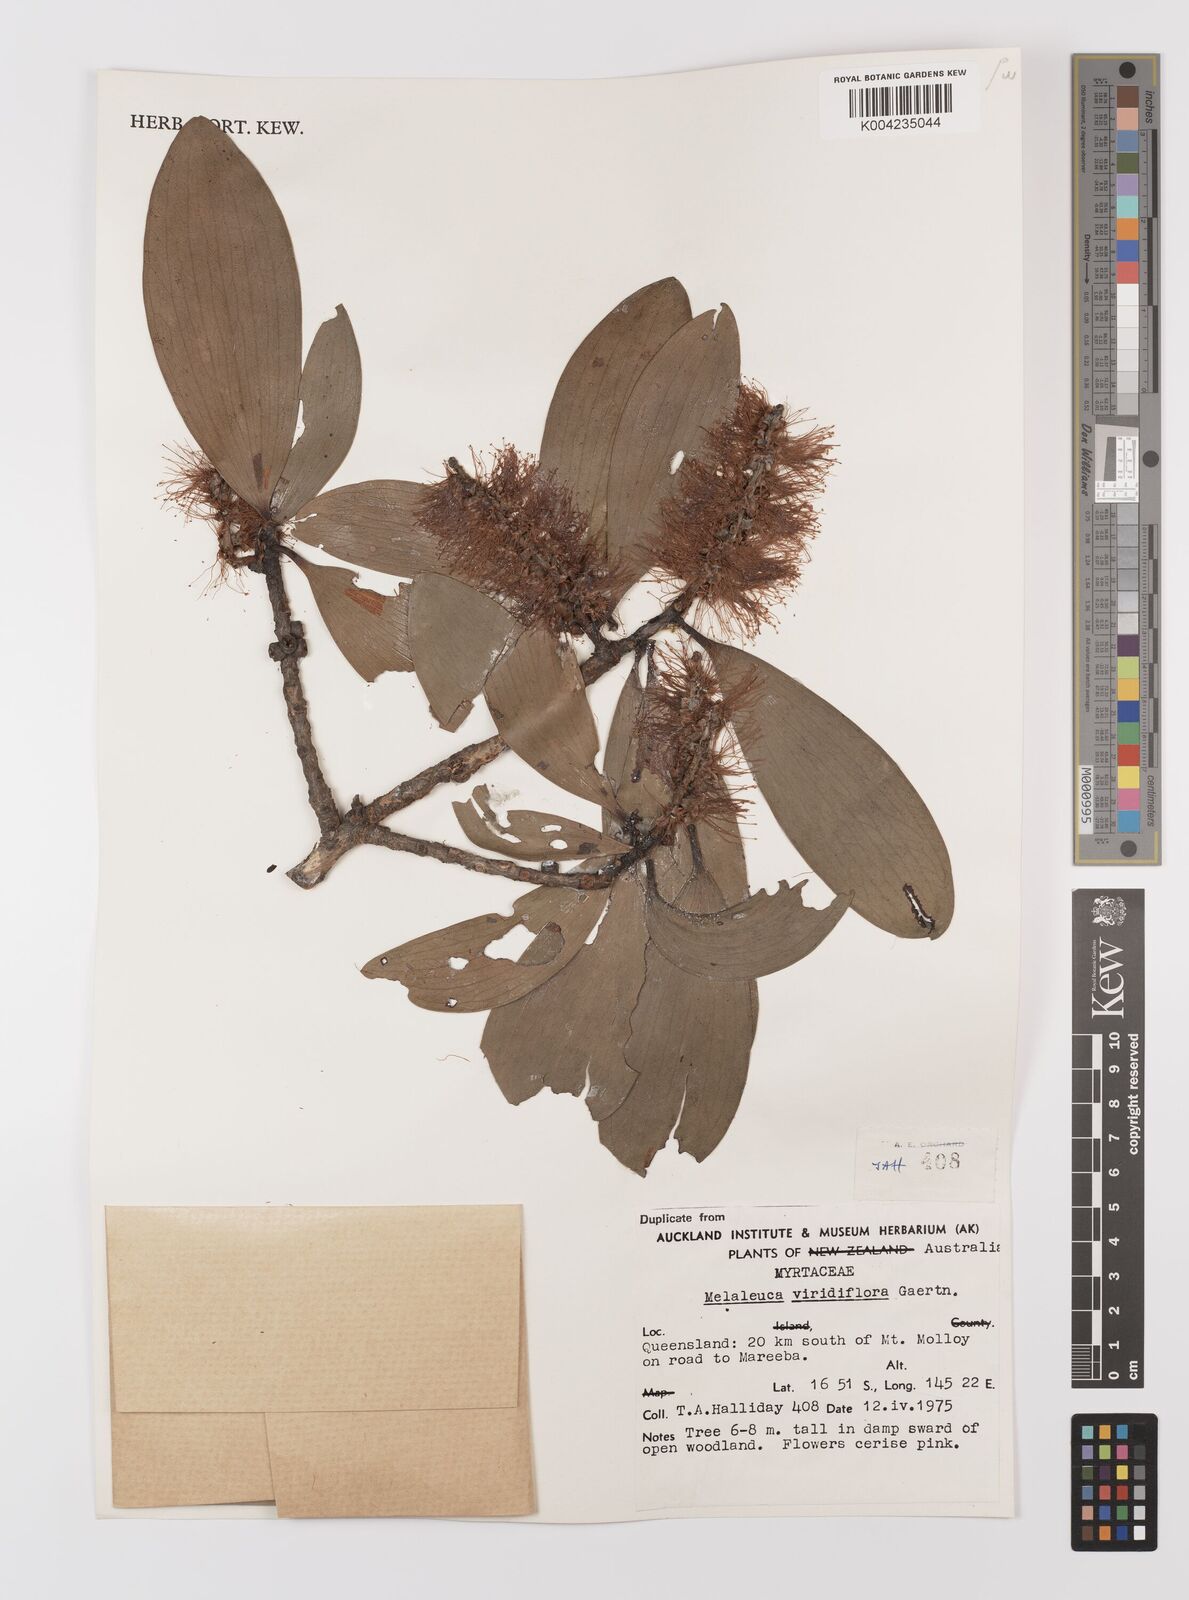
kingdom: Plantae
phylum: Tracheophyta
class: Magnoliopsida
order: Myrtales
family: Myrtaceae
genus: Melaleuca
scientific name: Melaleuca viridiflora
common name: Brown-leaved paperbark
